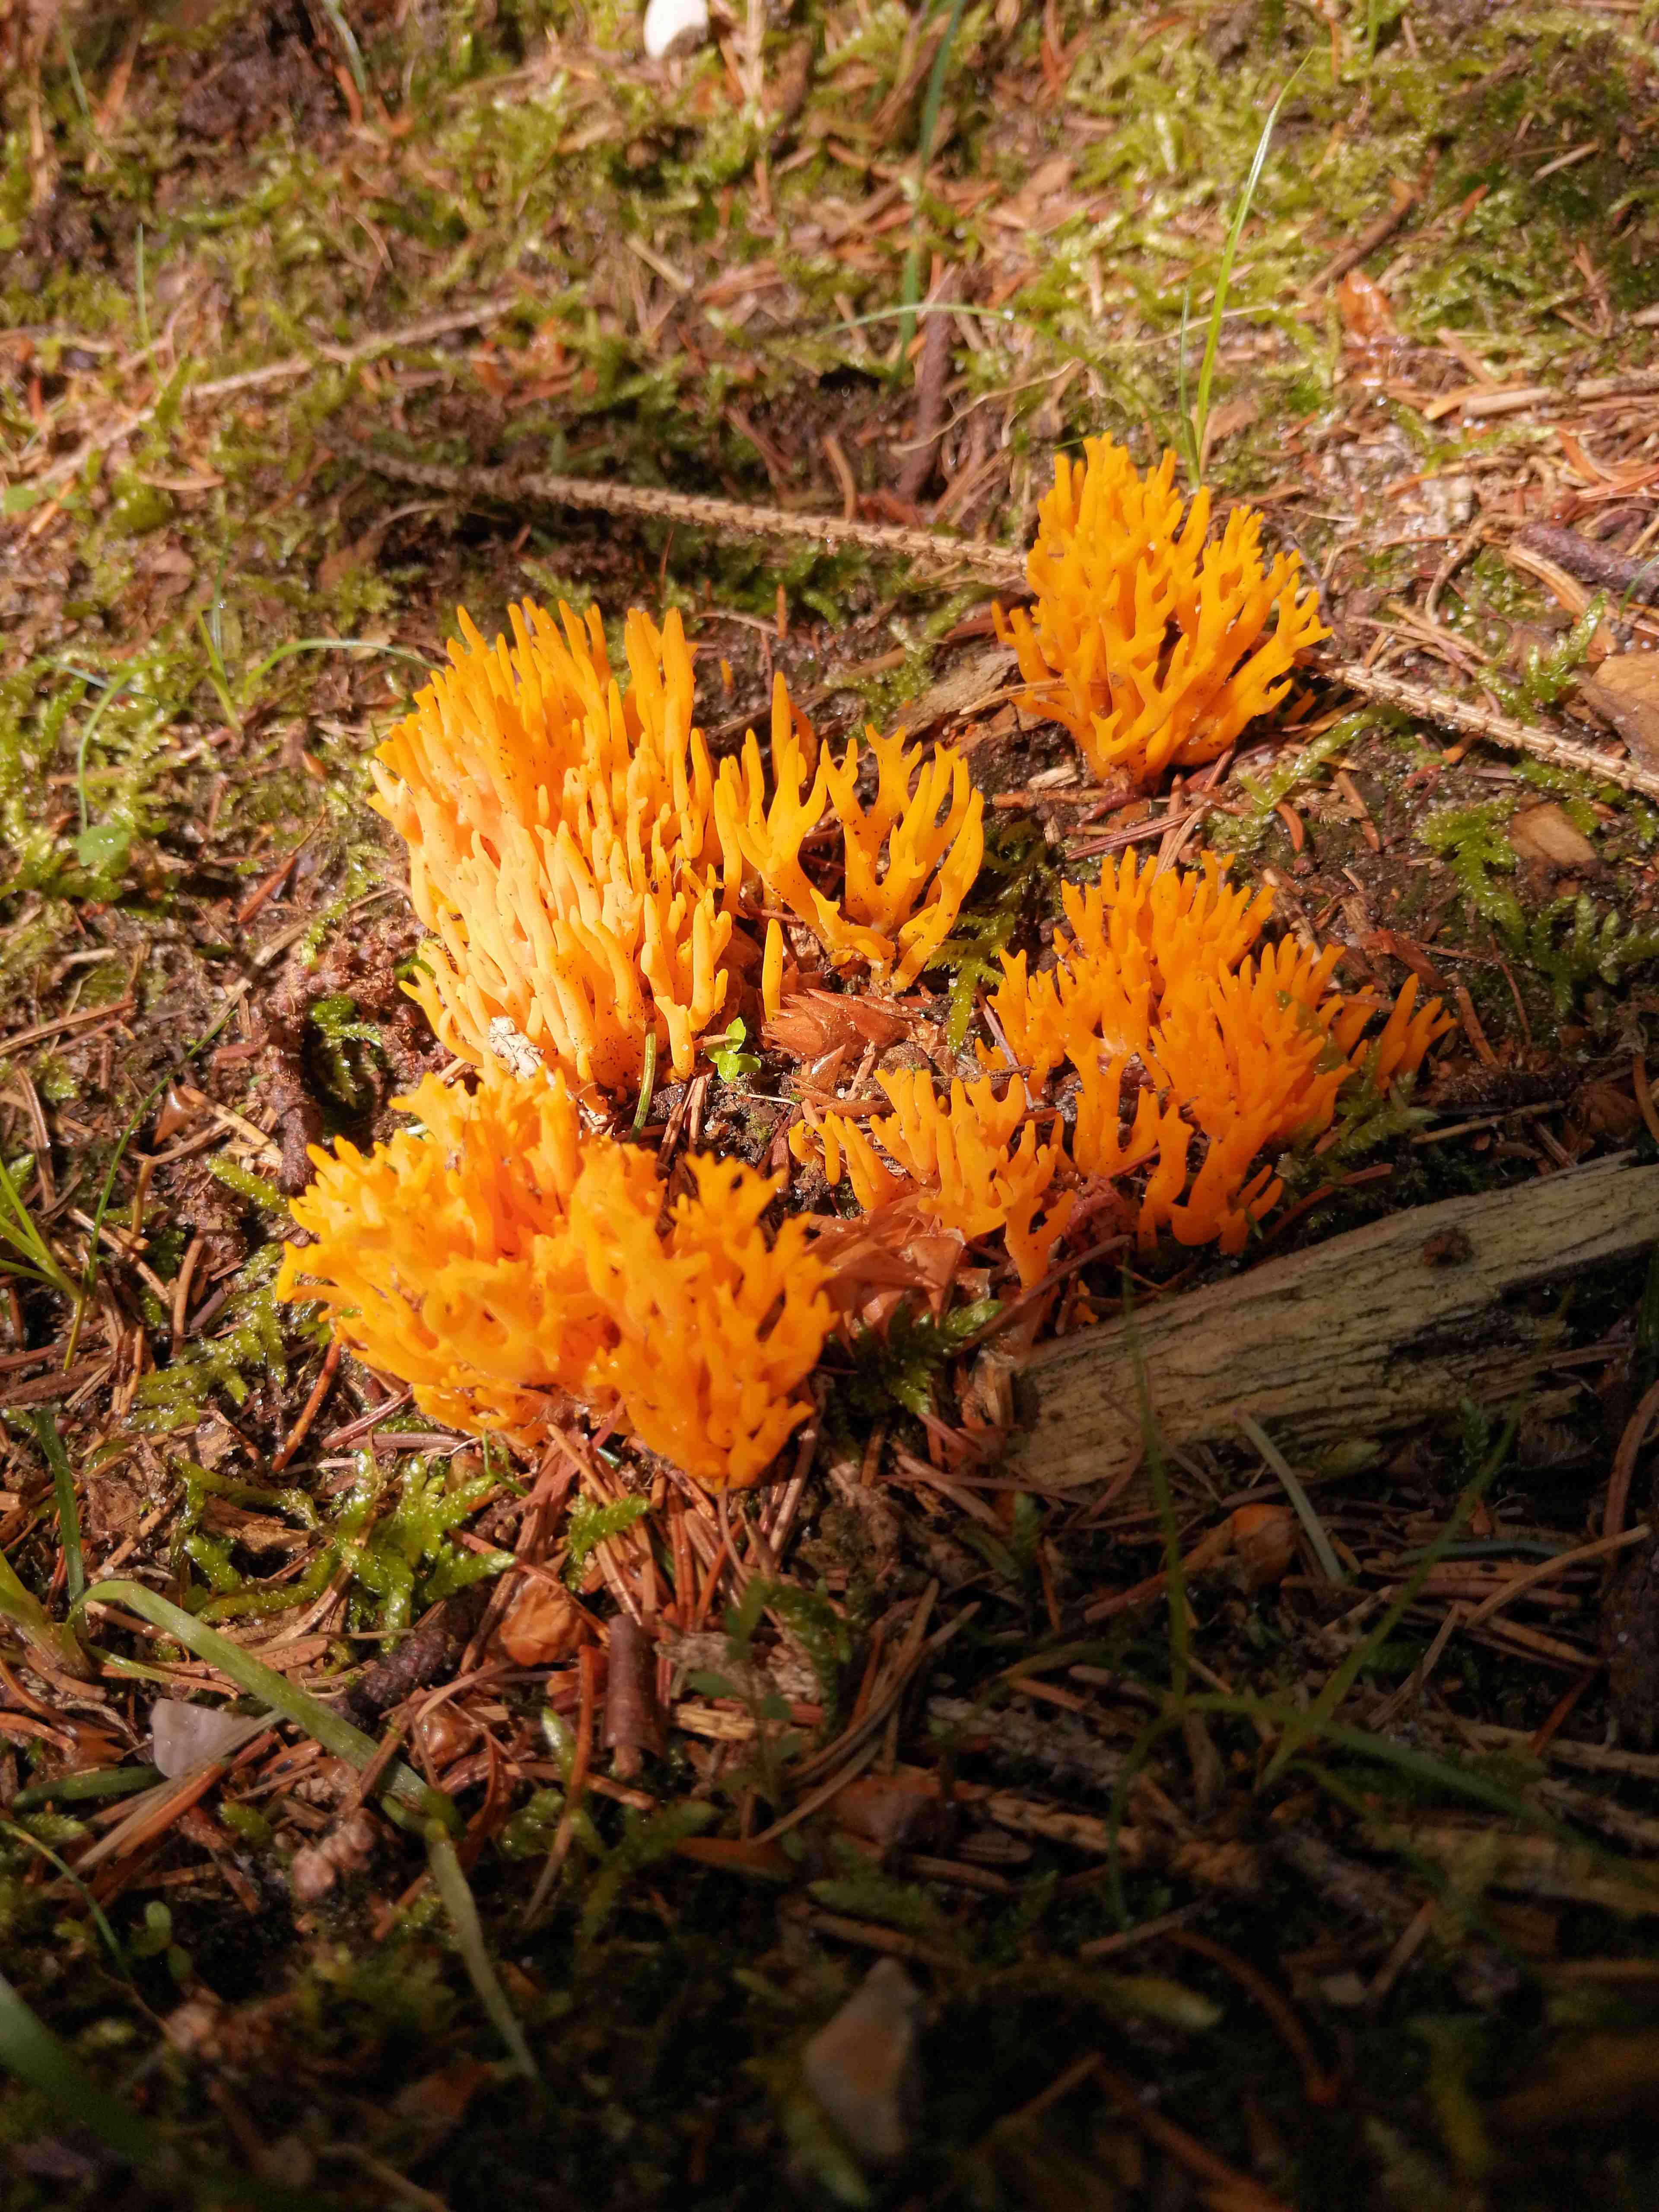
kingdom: Fungi
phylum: Basidiomycota
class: Dacrymycetes
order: Dacrymycetales
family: Dacrymycetaceae
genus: Calocera
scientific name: Calocera viscosa
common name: almindelig guldgaffel
